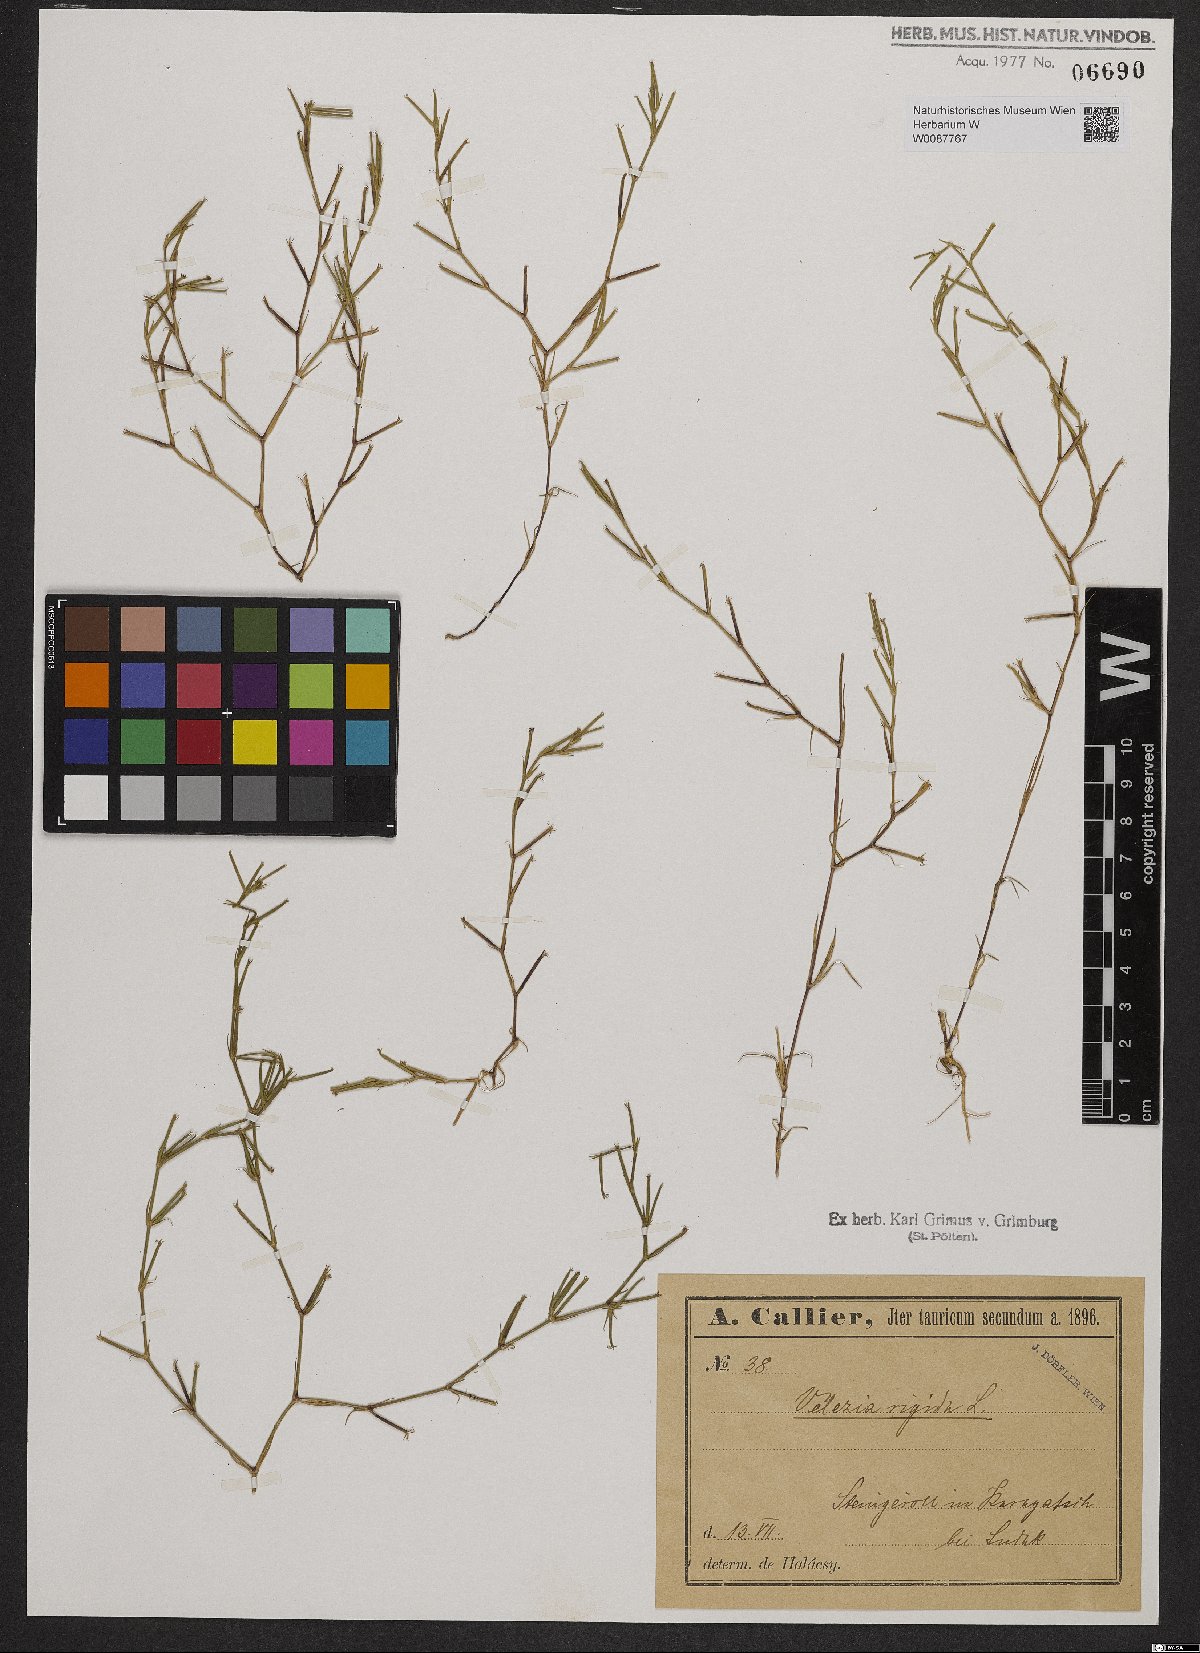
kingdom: Plantae
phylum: Tracheophyta
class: Magnoliopsida
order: Caryophyllales
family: Caryophyllaceae
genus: Dianthus
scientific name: Dianthus nudiflorus
